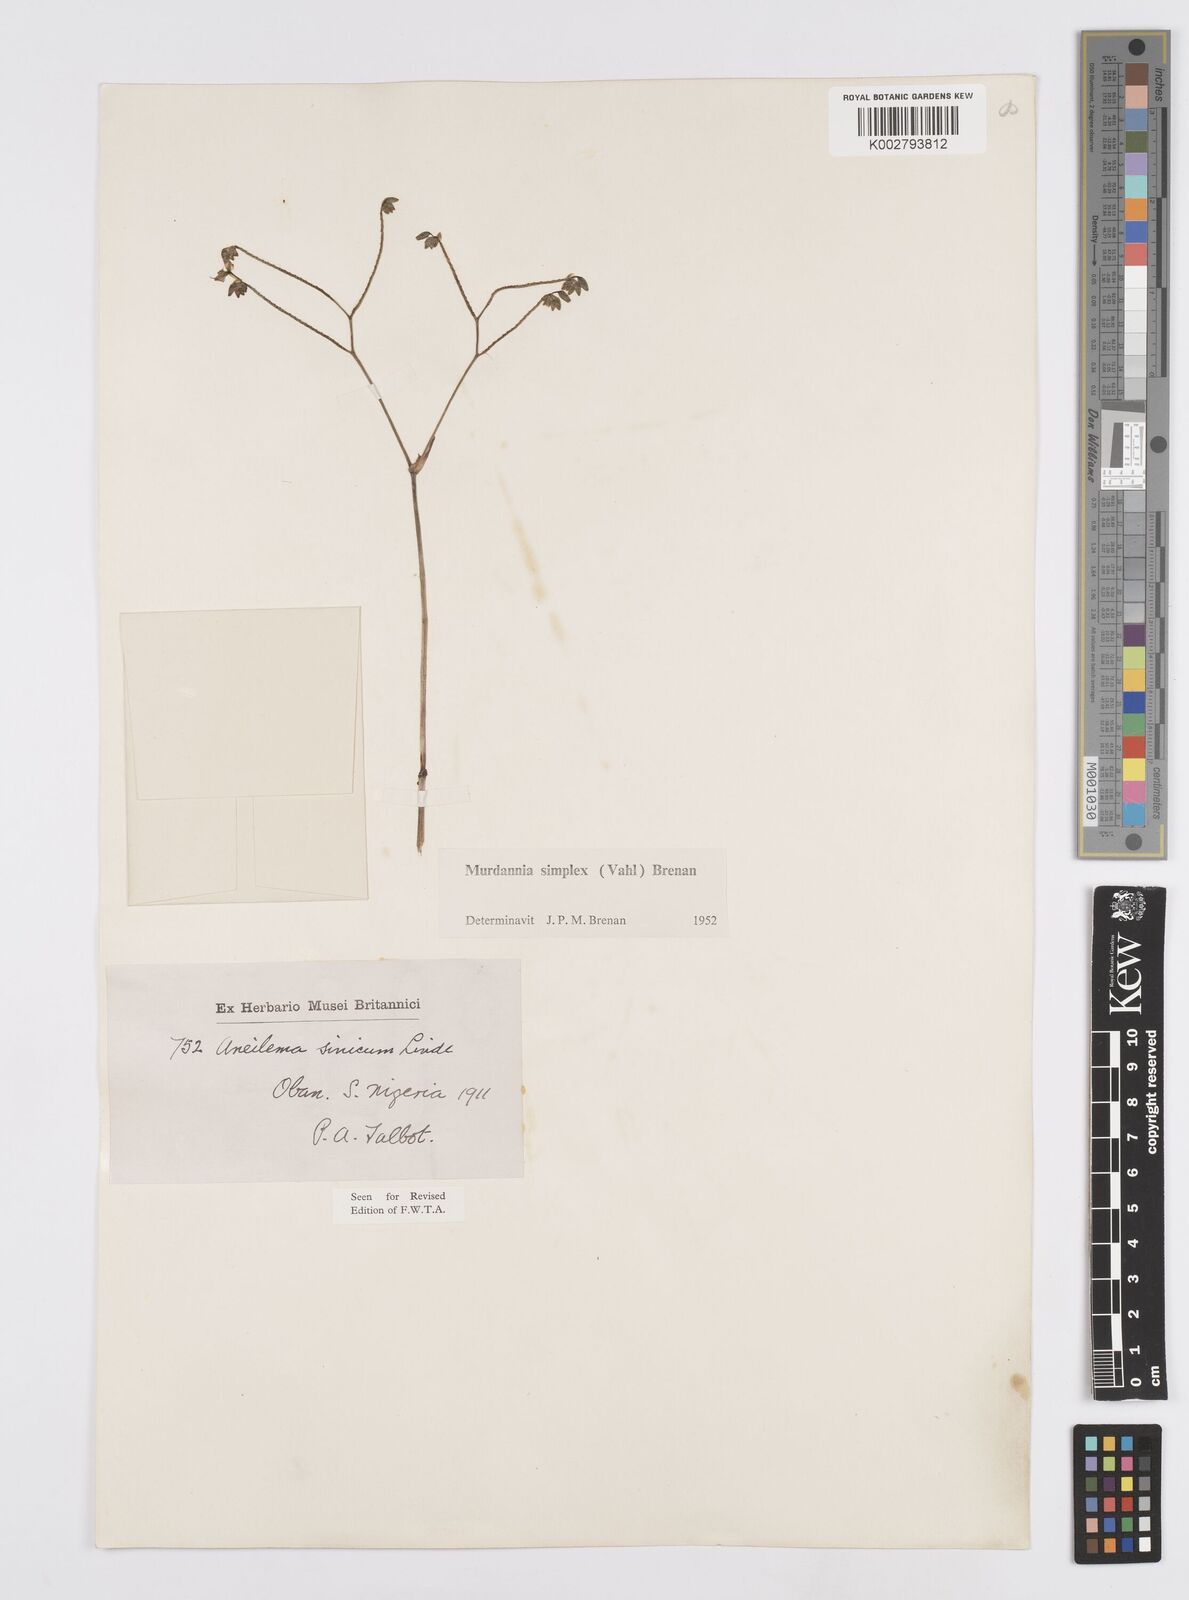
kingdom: Plantae
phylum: Tracheophyta
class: Liliopsida
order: Commelinales
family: Commelinaceae
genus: Murdannia
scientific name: Murdannia simplex
